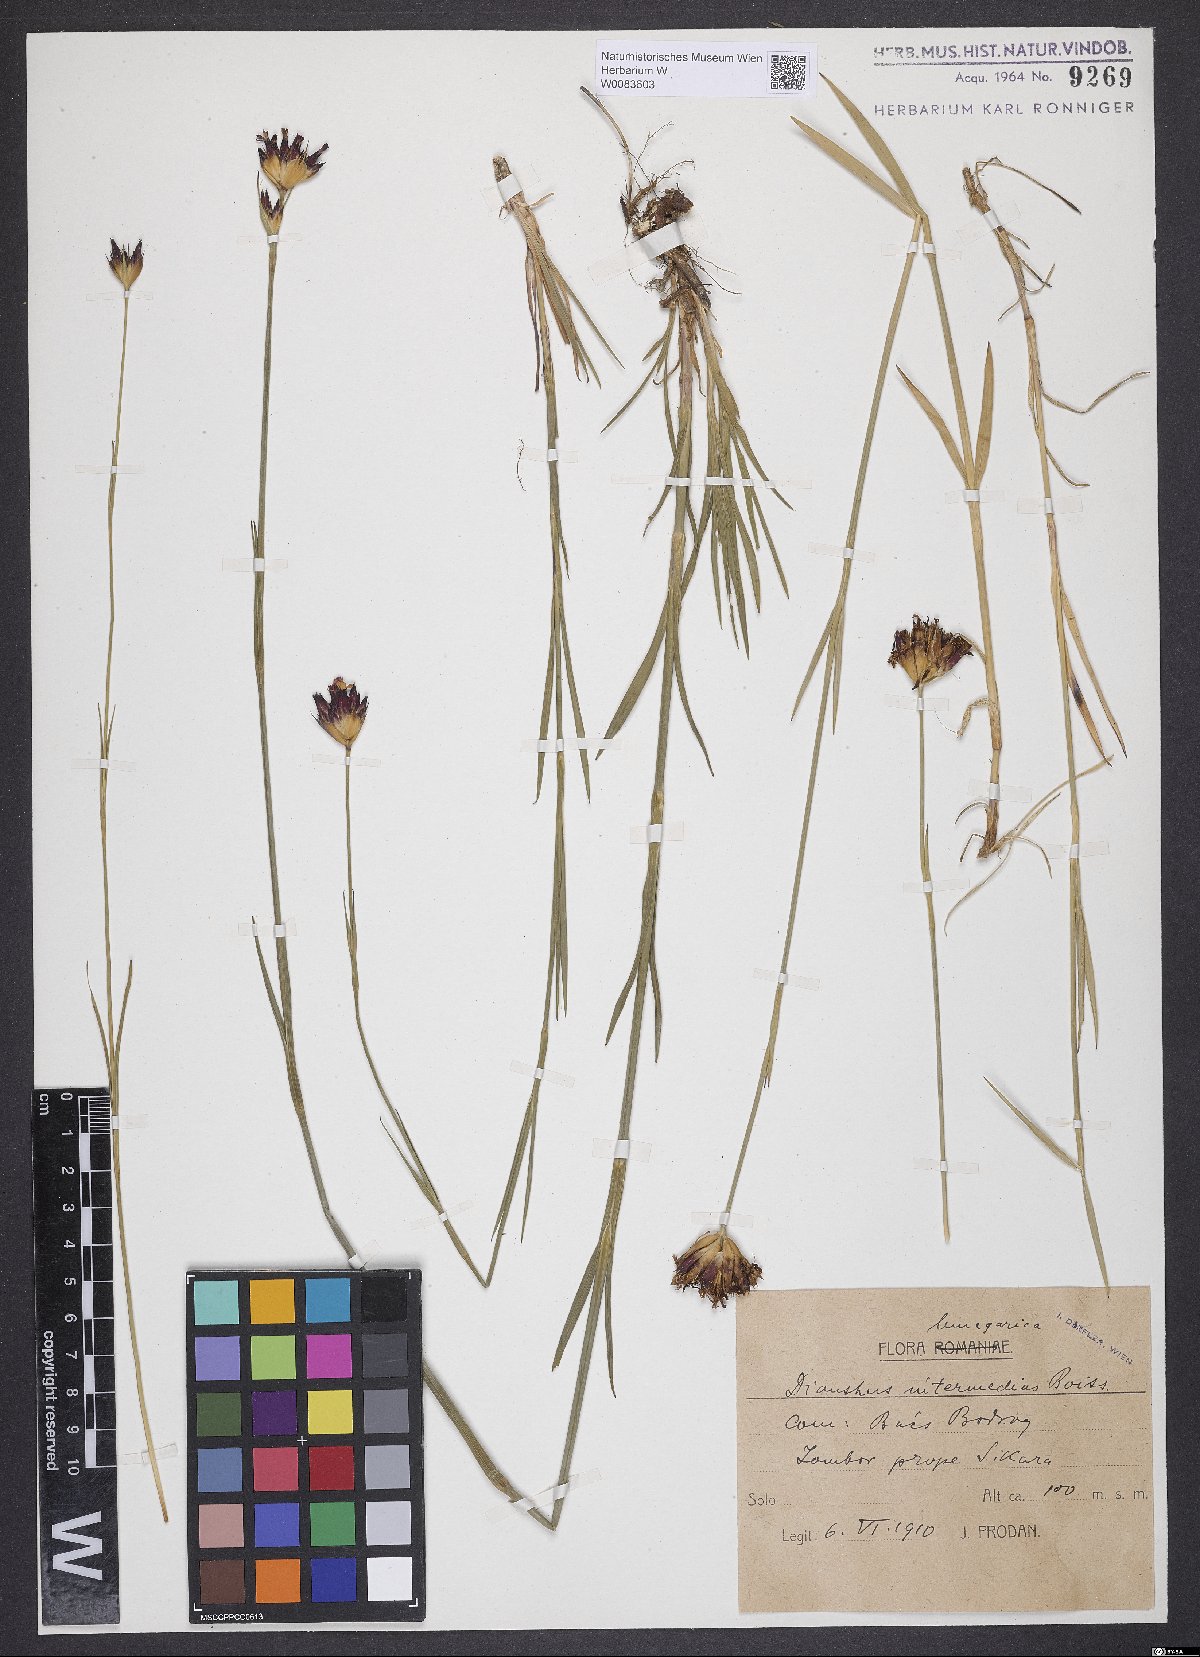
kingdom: Plantae
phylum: Tracheophyta
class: Magnoliopsida
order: Caryophyllales
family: Caryophyllaceae
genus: Dianthus
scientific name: Dianthus cruentus
